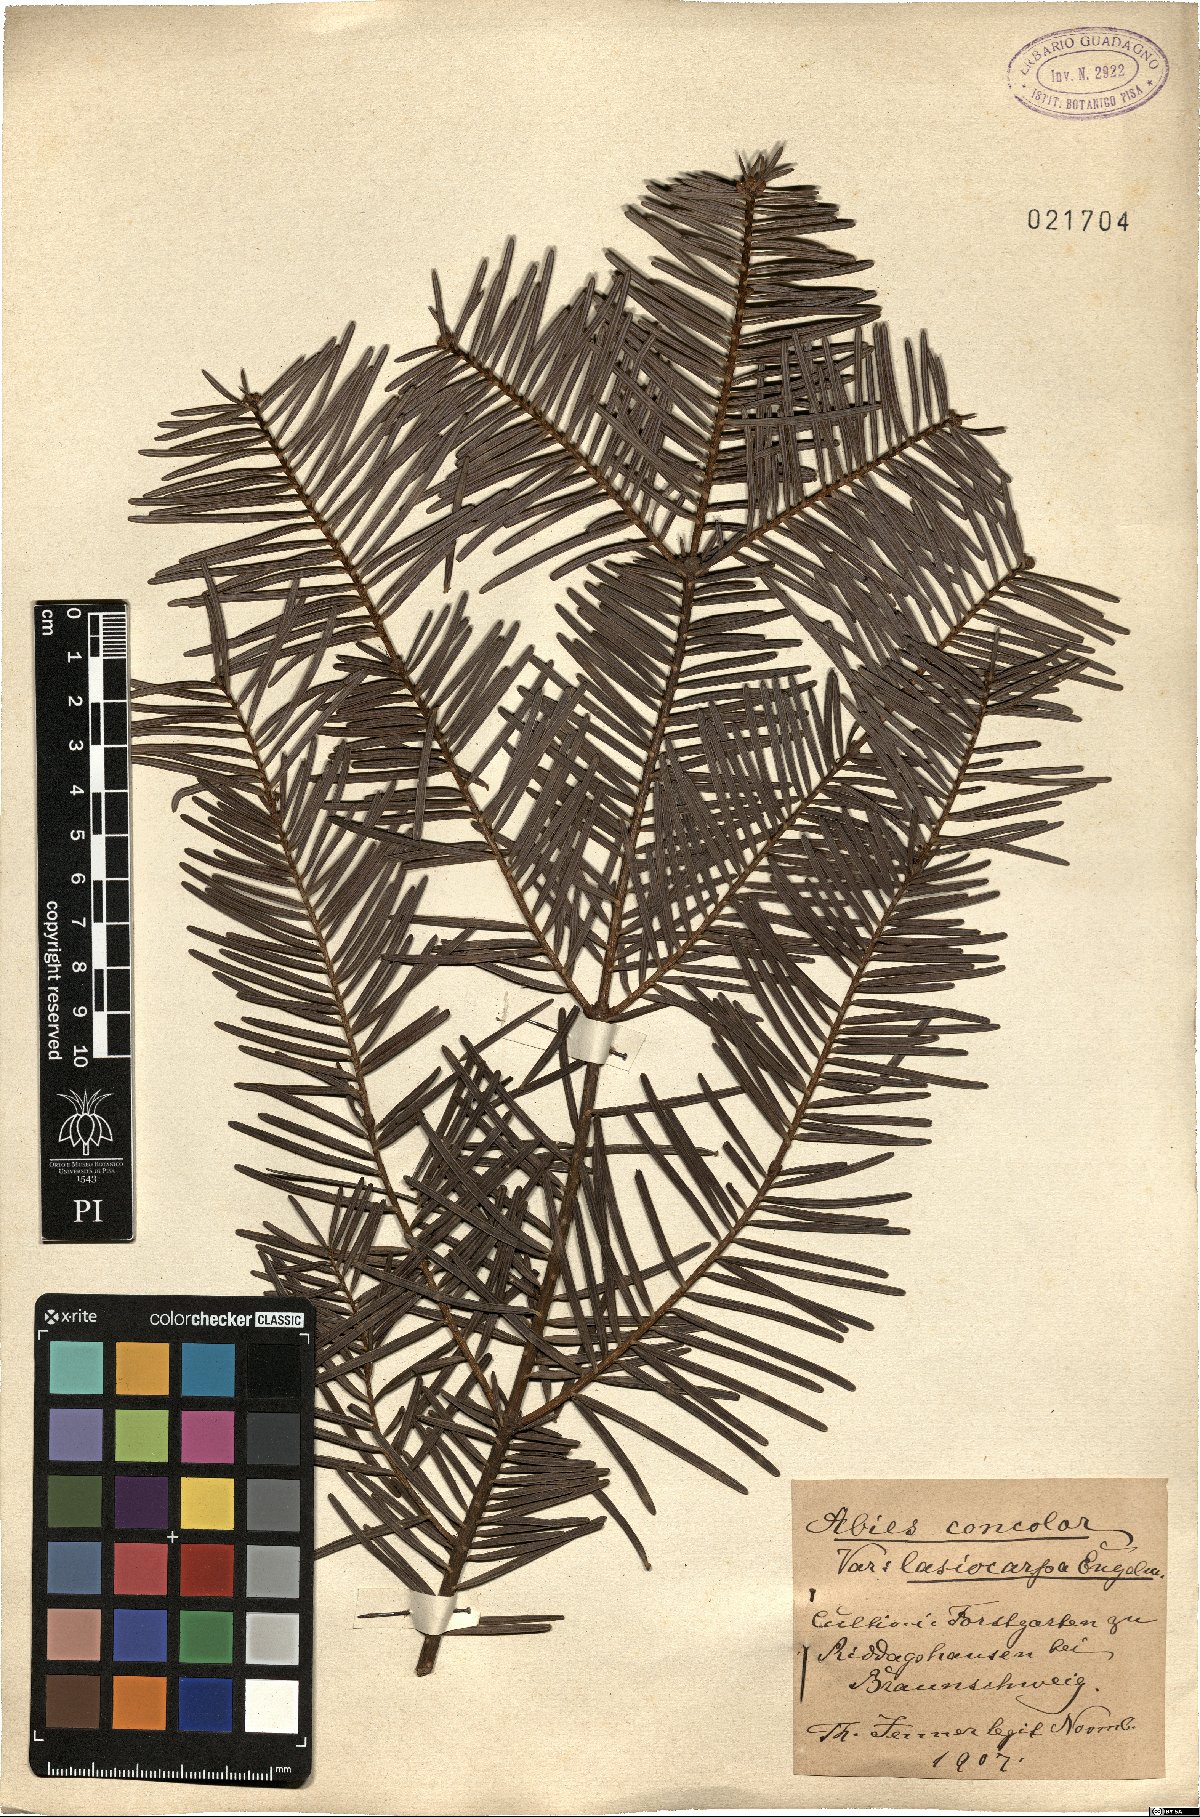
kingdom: Plantae
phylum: Tracheophyta
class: Pinopsida
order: Pinales
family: Pinaceae
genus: Abies
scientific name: Abies concolor
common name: Colorado fir
